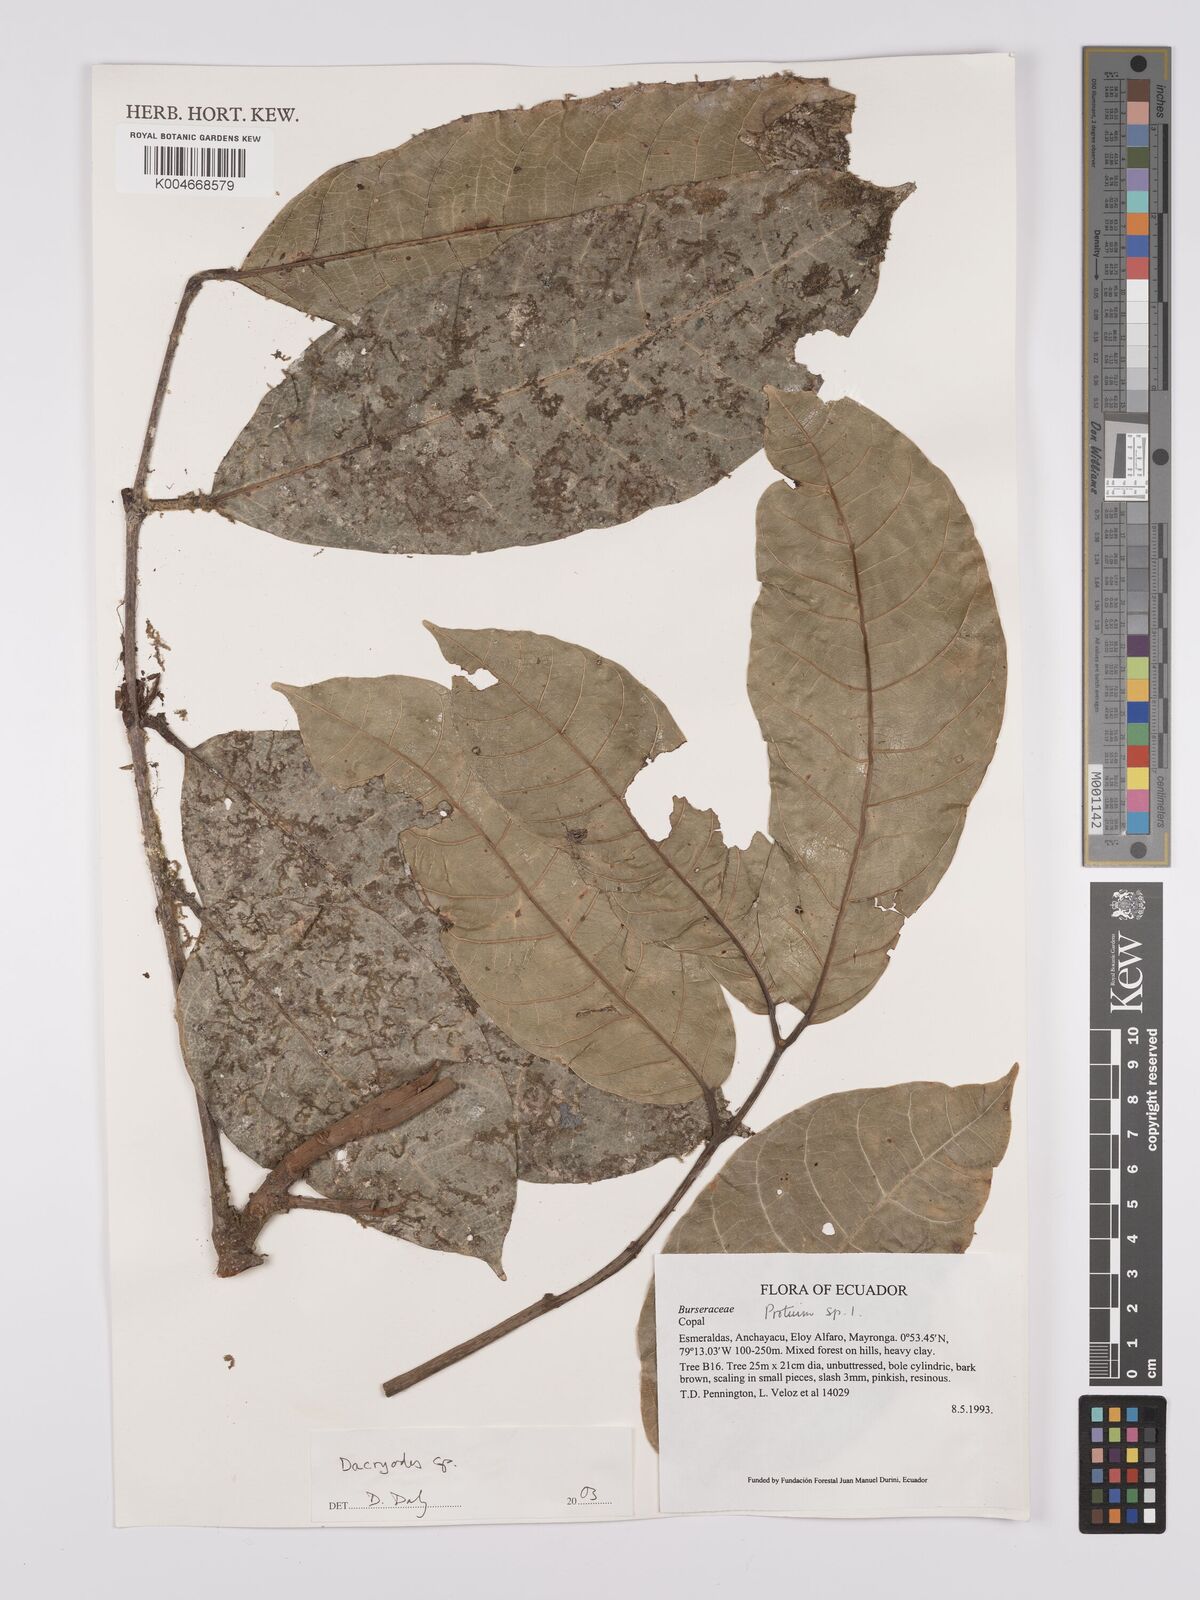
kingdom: Plantae
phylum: Tracheophyta
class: Magnoliopsida
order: Sapindales
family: Burseraceae
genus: Dacryodes
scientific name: Dacryodes
